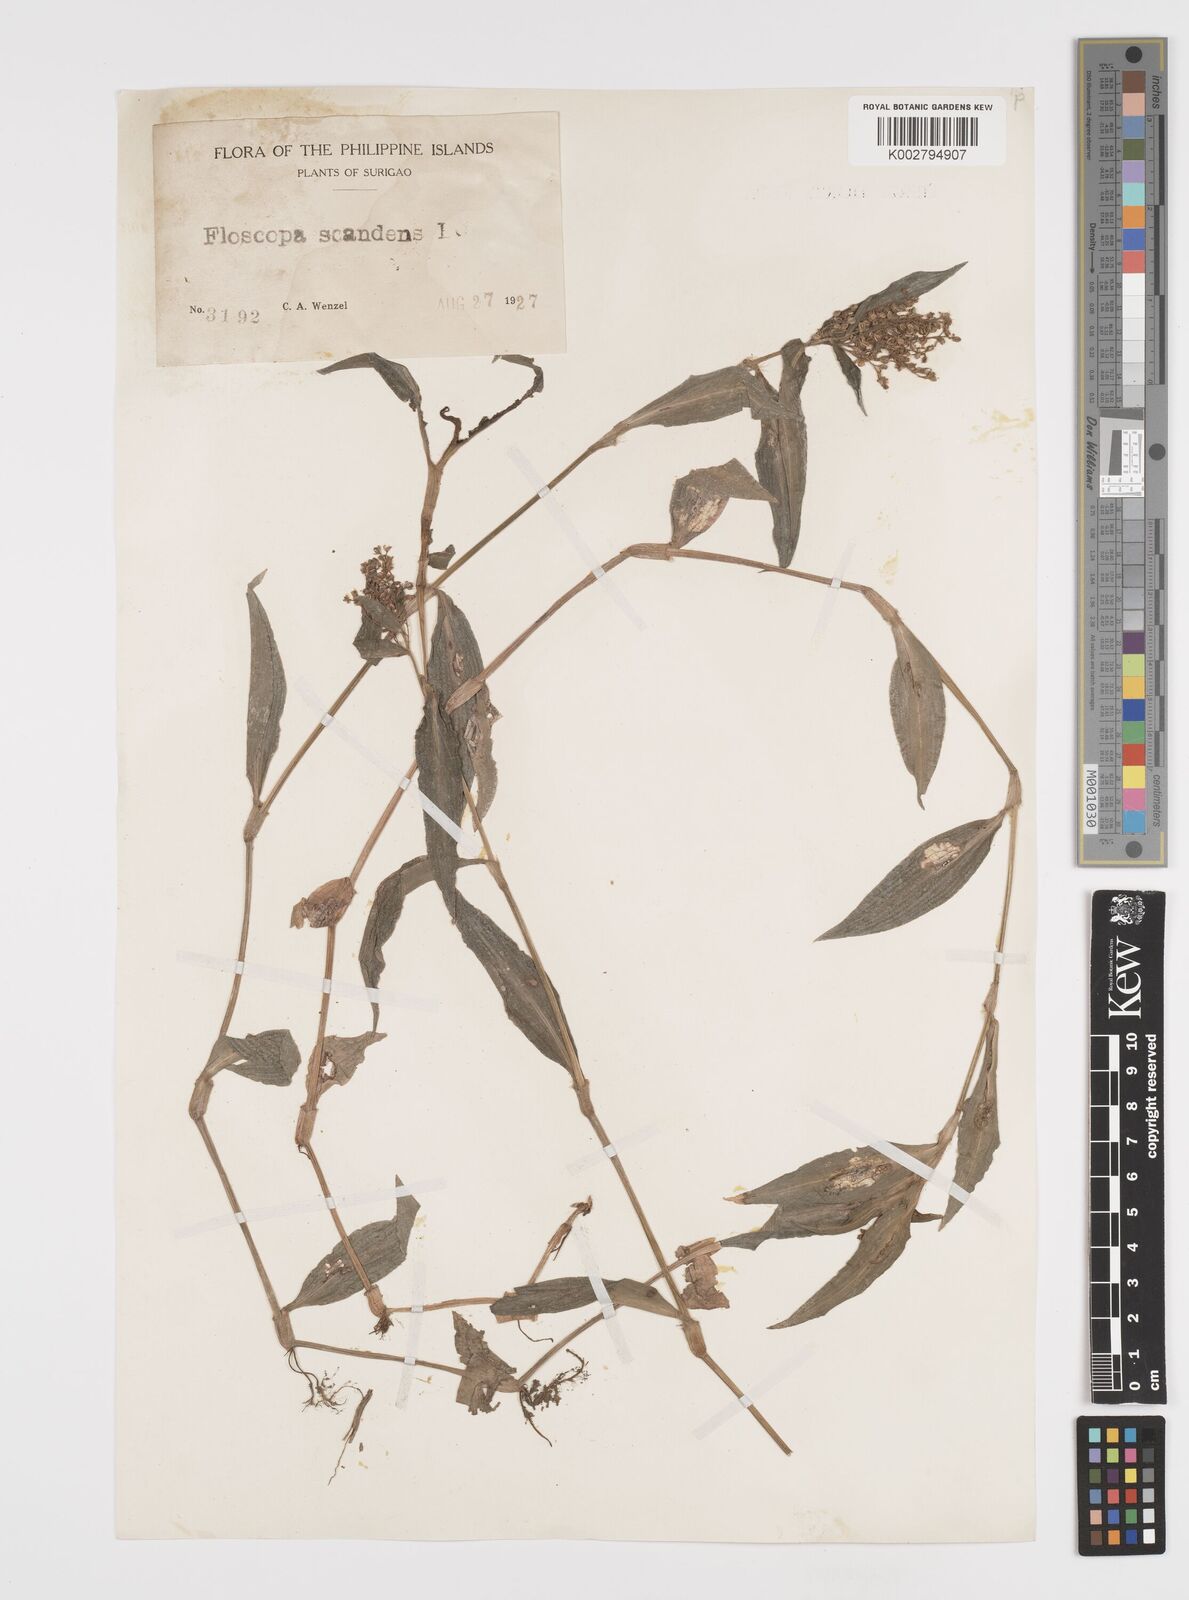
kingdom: Plantae
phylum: Tracheophyta
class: Liliopsida
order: Commelinales
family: Commelinaceae
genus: Floscopa
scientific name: Floscopa scandens
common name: Climbing flower cup
